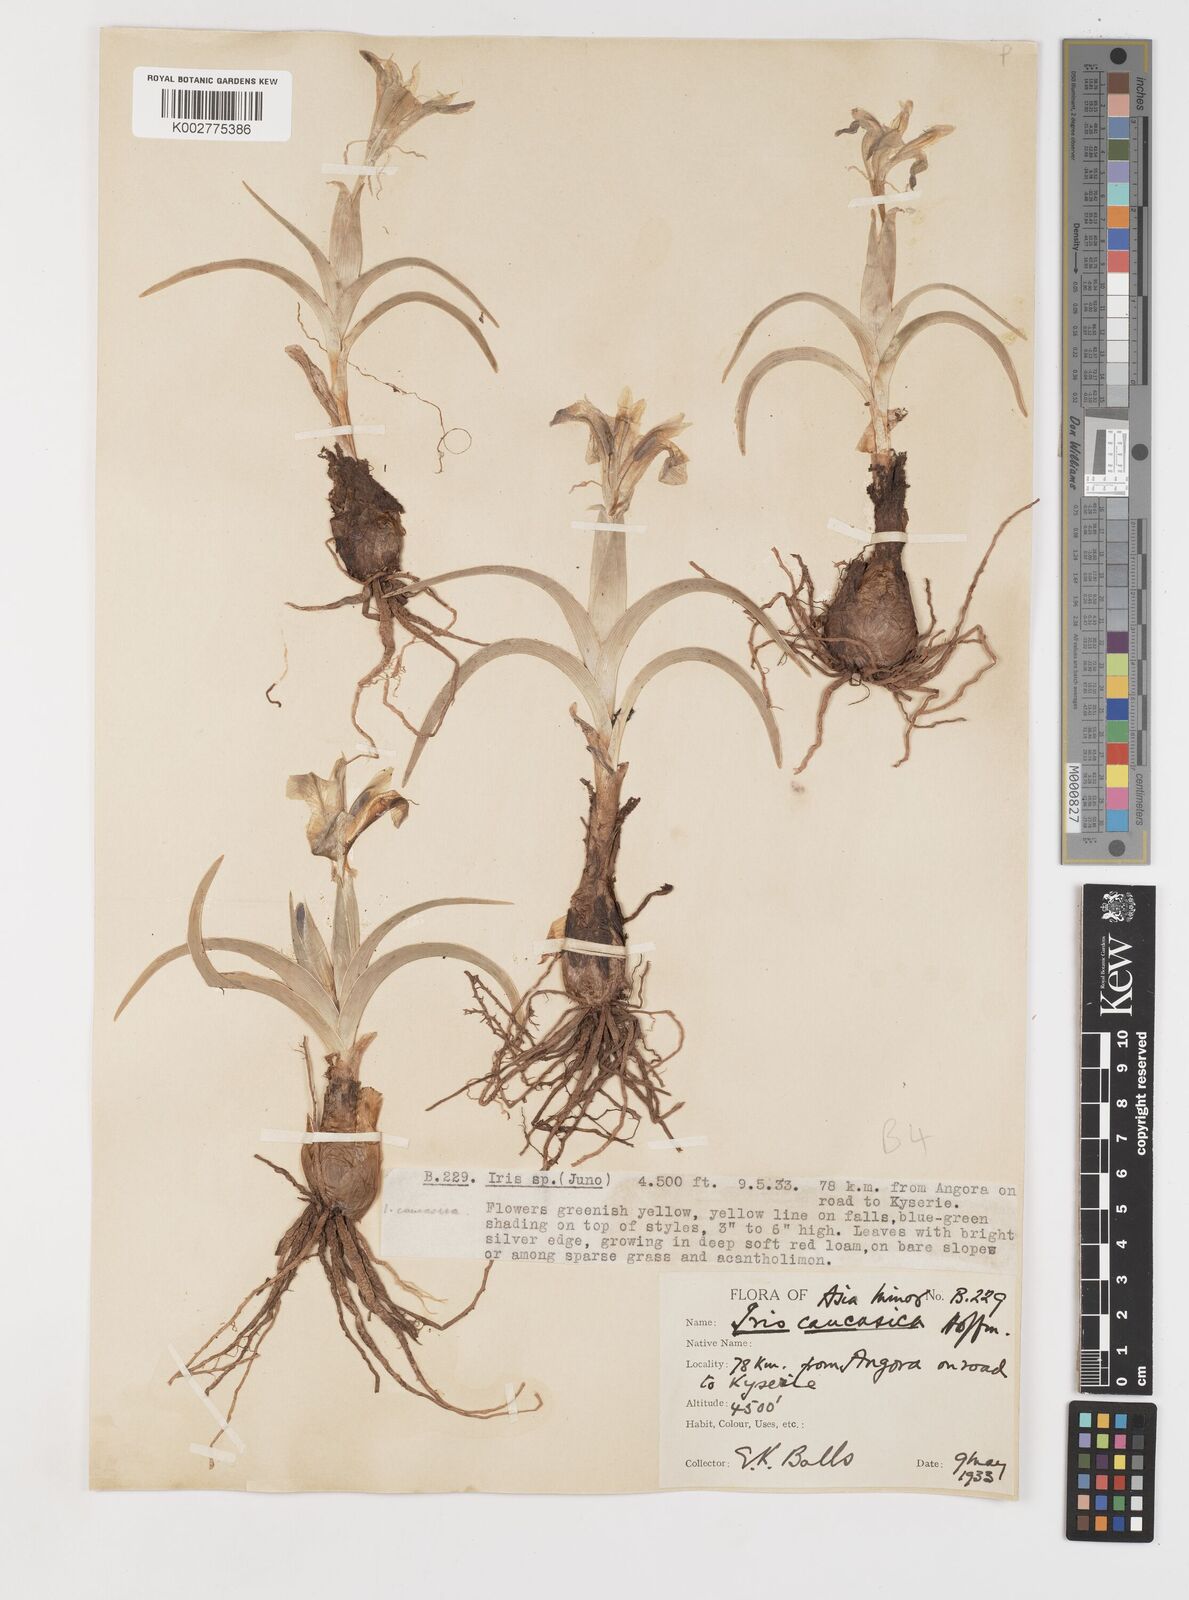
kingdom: Plantae
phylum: Tracheophyta
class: Liliopsida
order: Asparagales
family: Iridaceae
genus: Iris
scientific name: Iris caucasica
